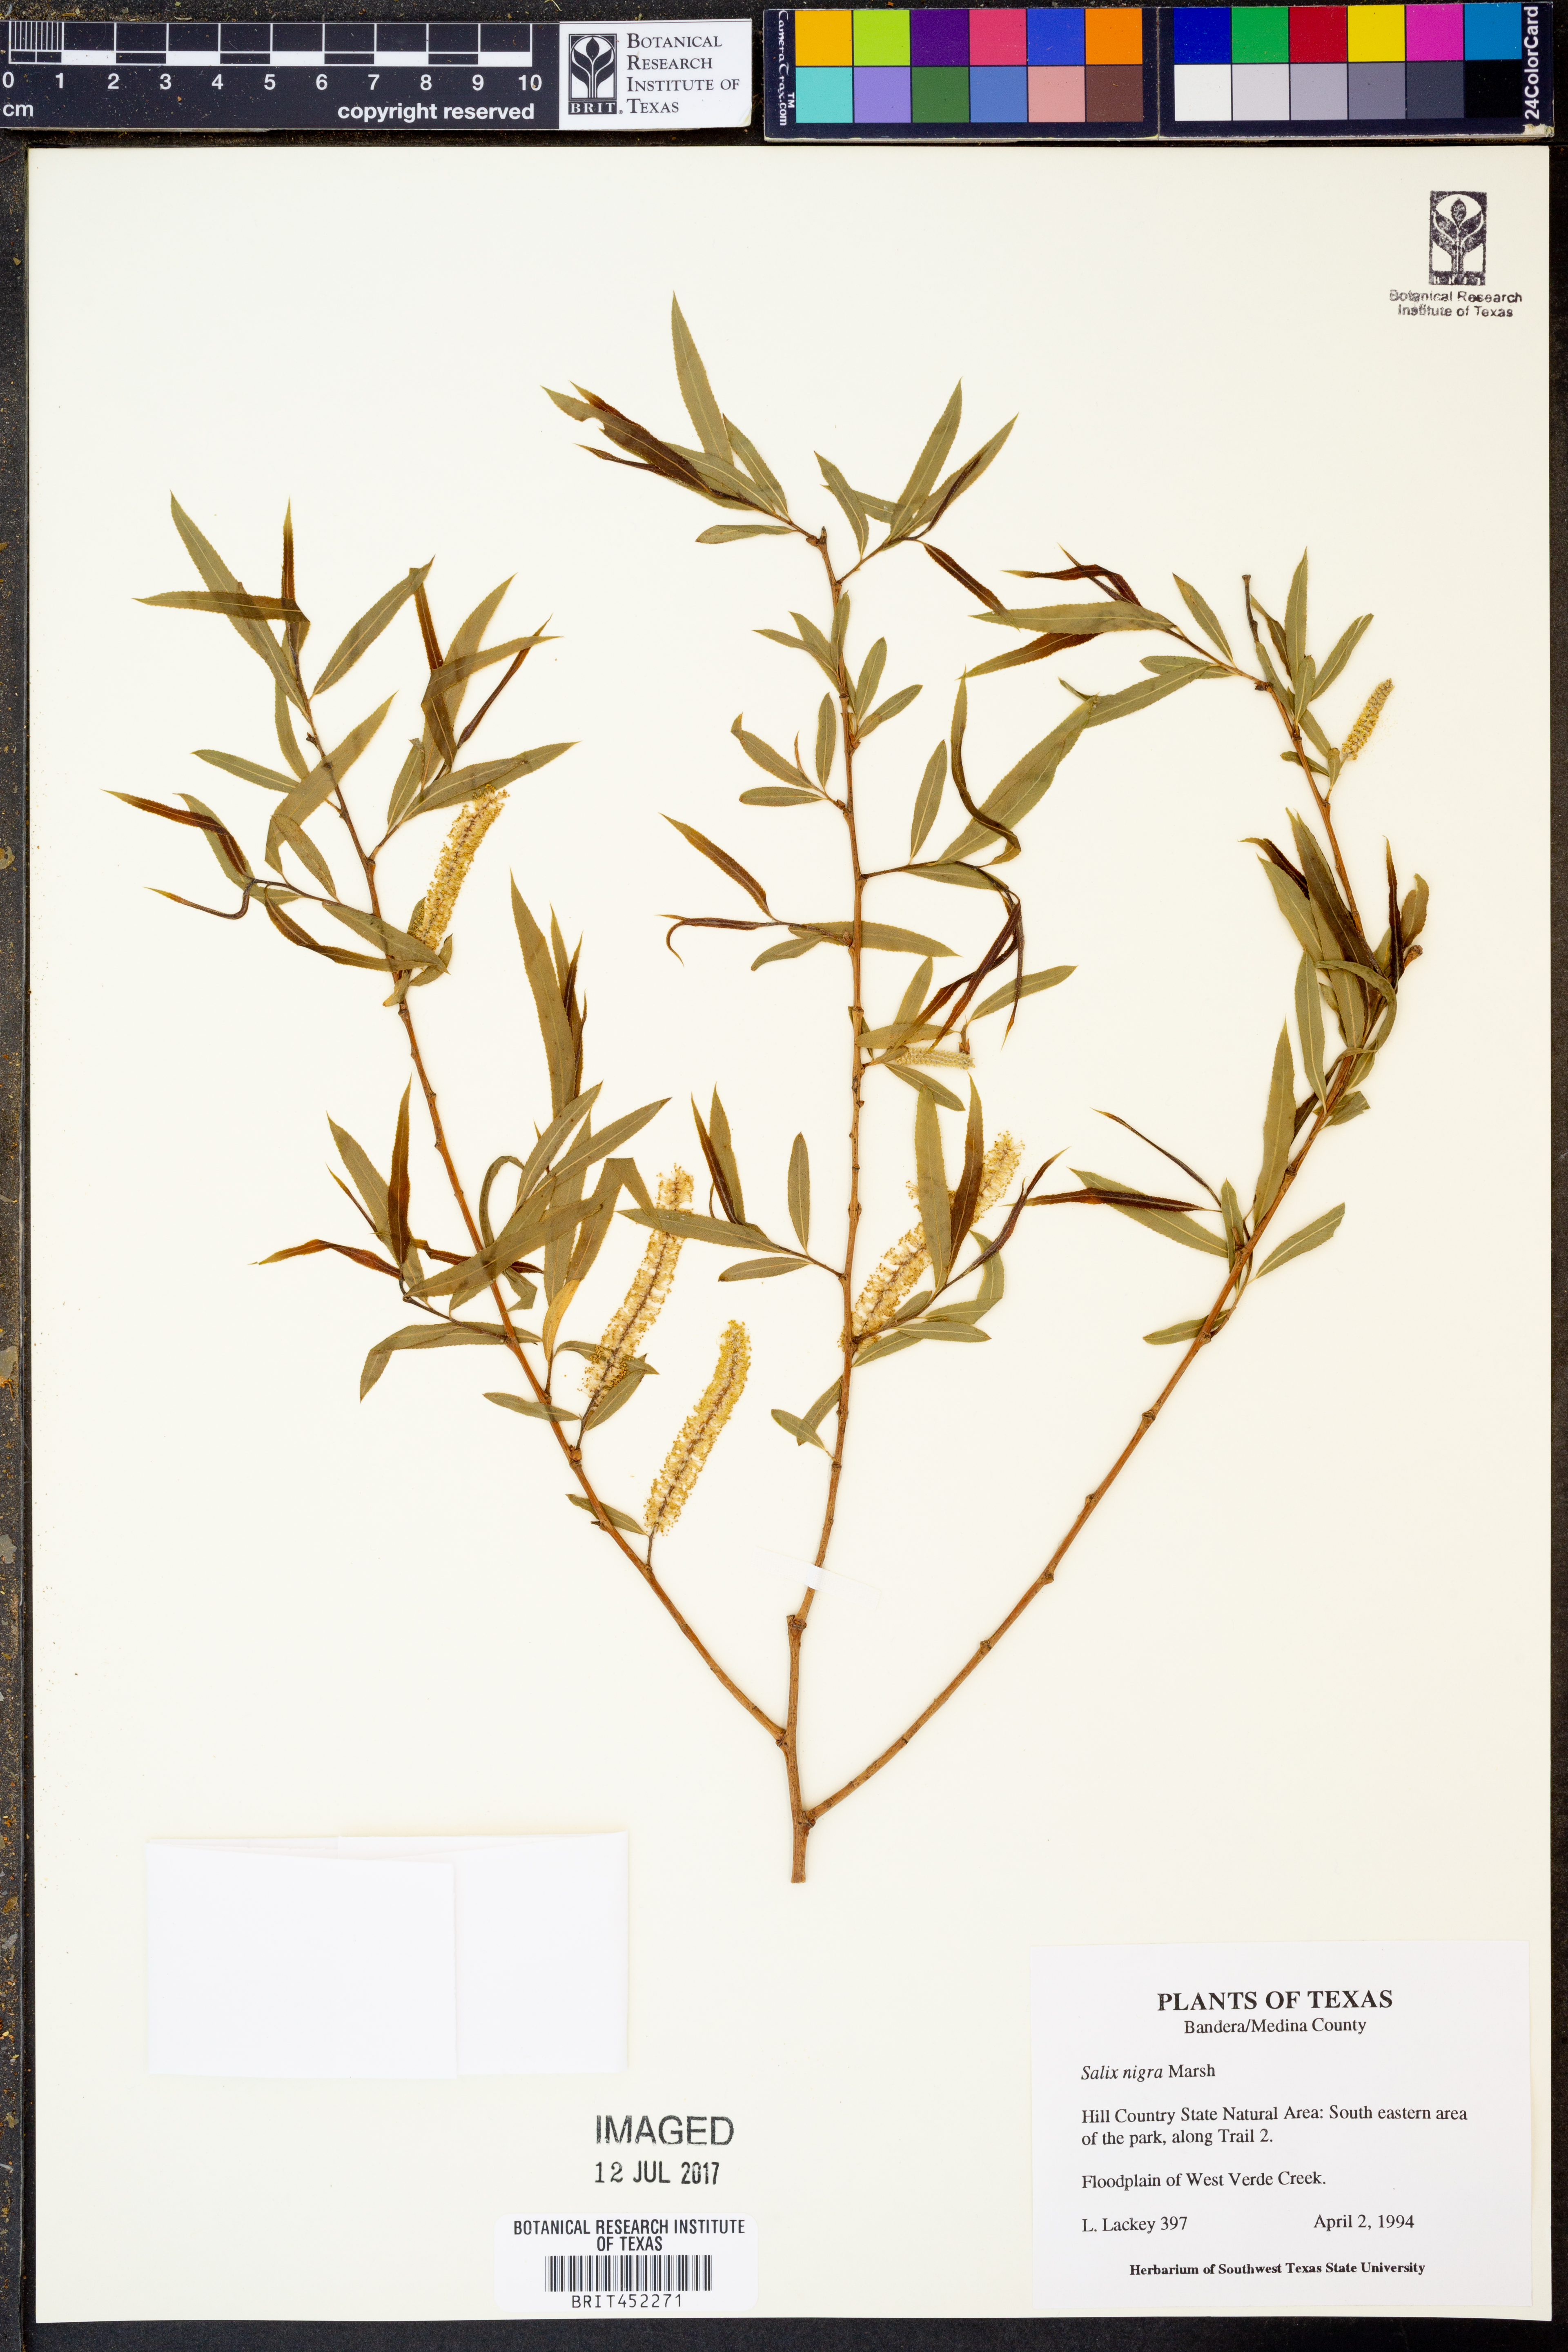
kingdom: Plantae
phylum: Tracheophyta
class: Magnoliopsida
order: Malpighiales
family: Salicaceae
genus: Salix
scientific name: Salix nigra
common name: Black willow
